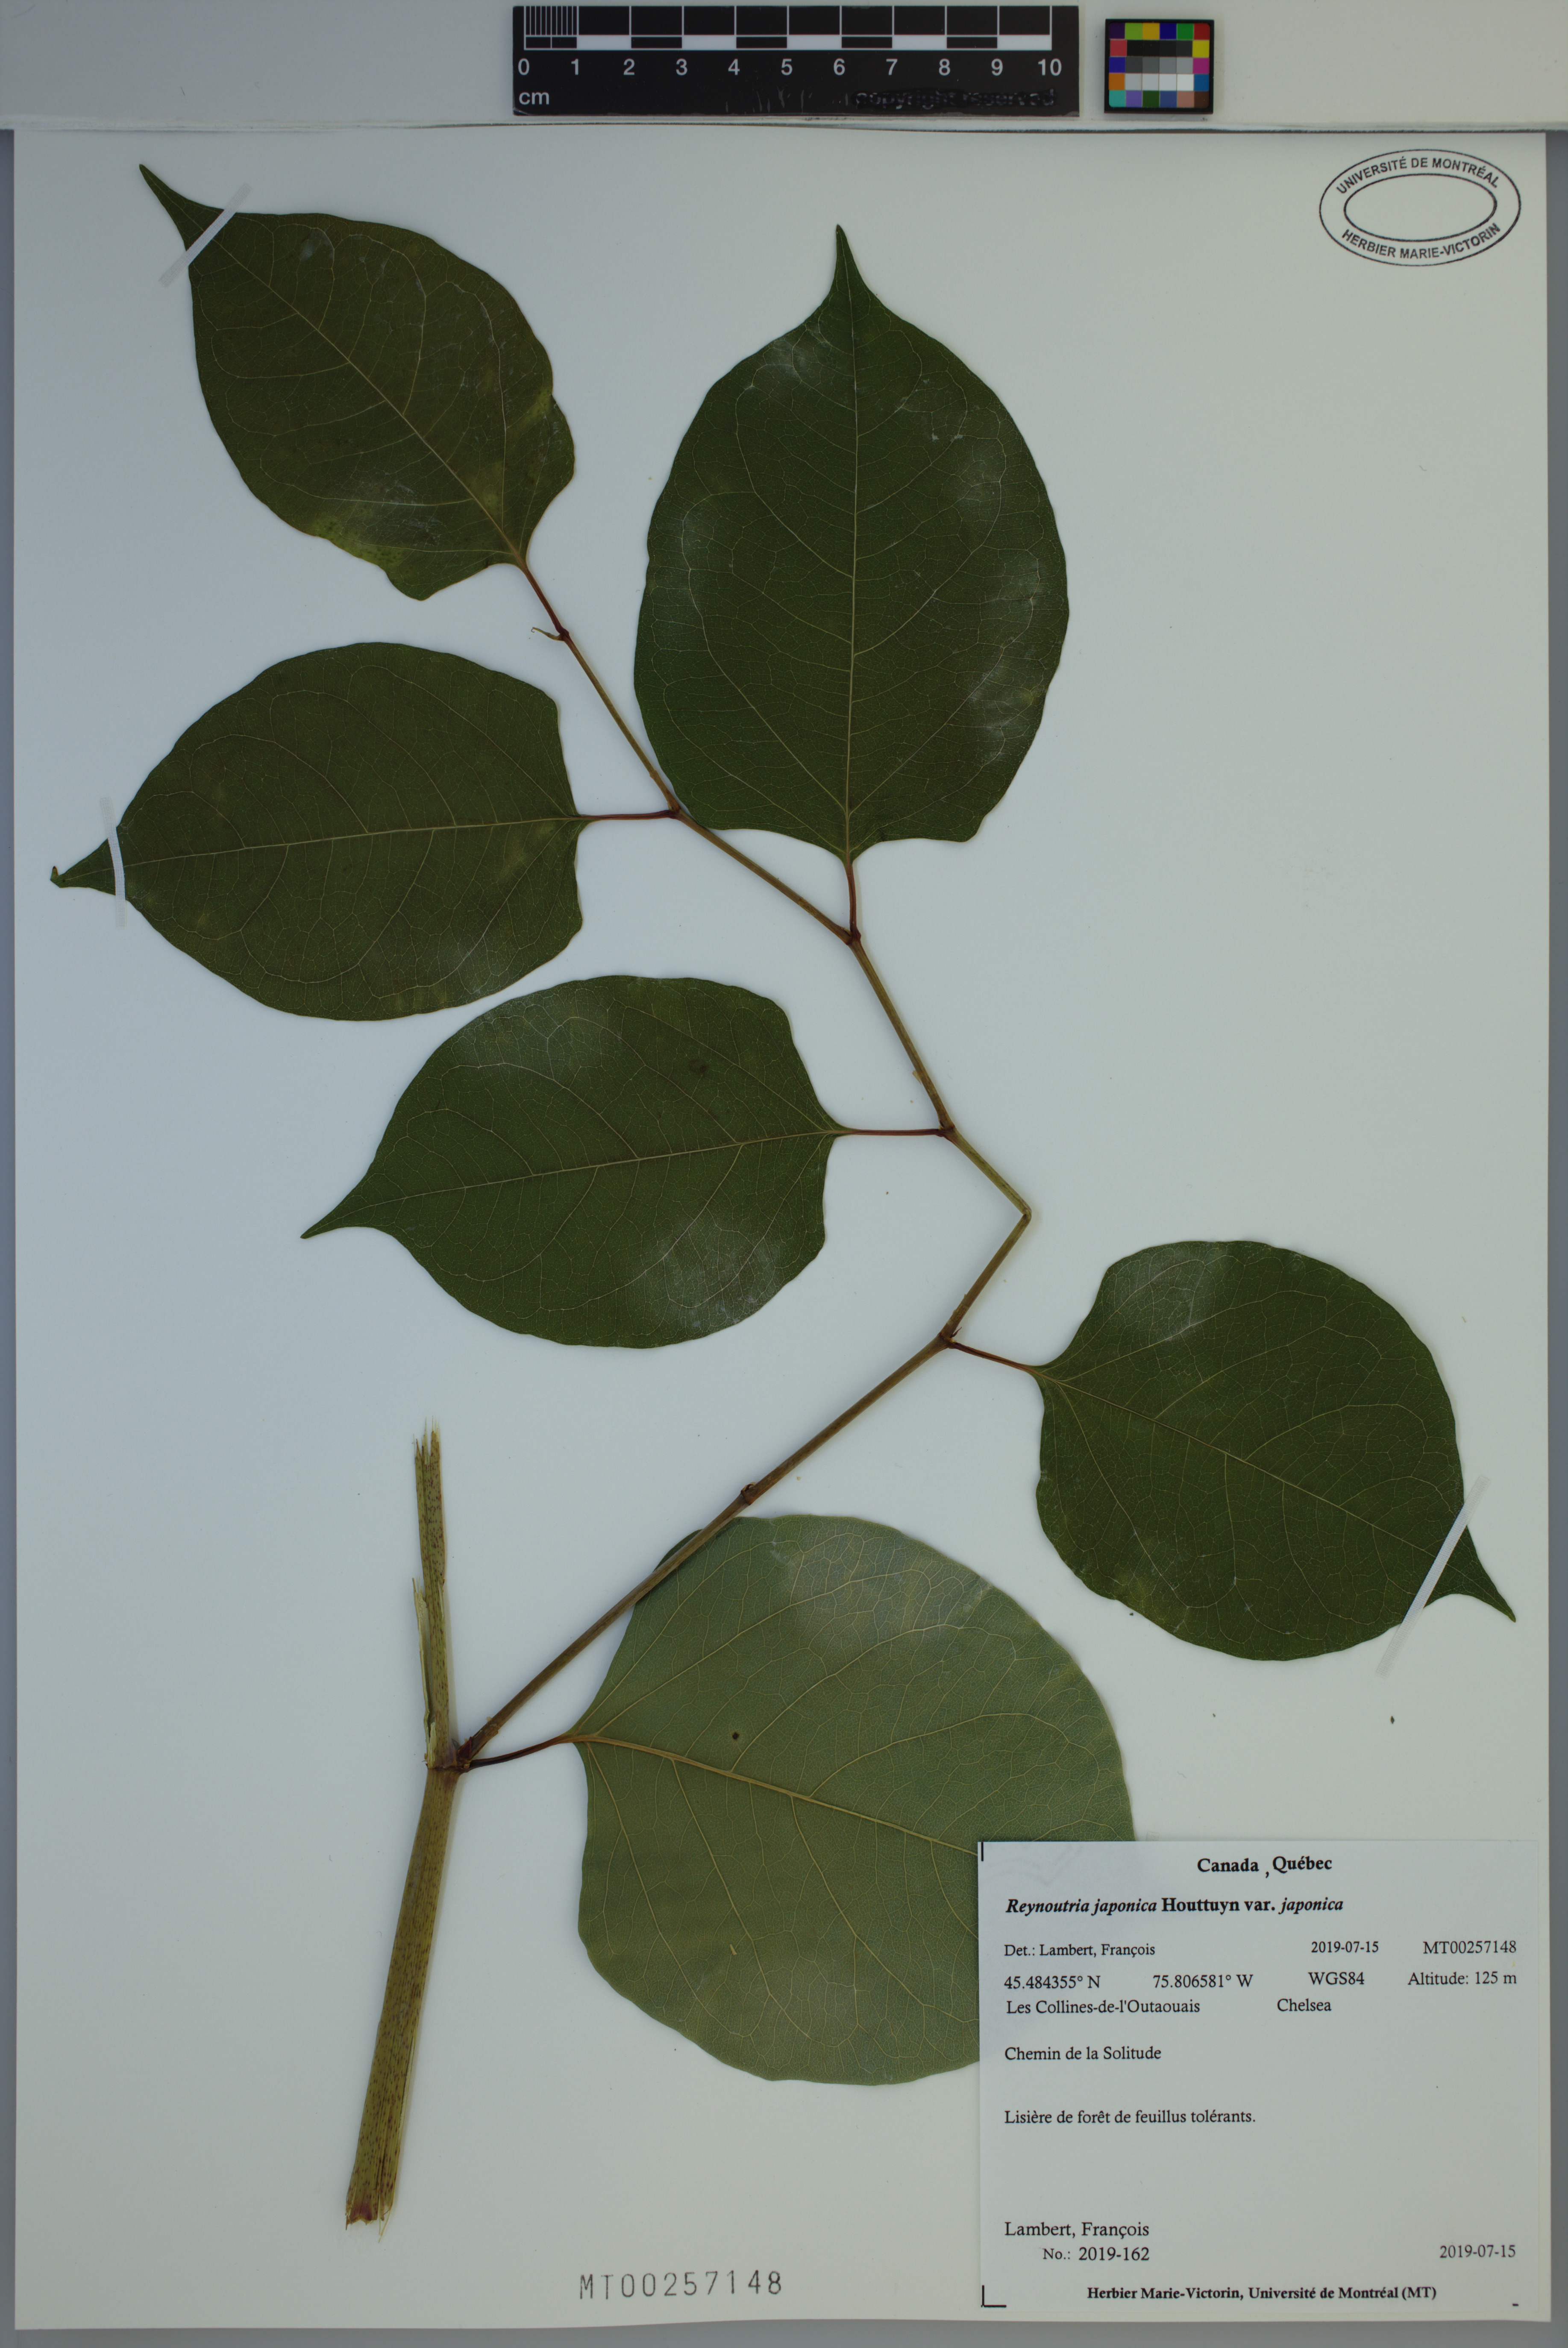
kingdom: Plantae
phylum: Tracheophyta
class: Magnoliopsida
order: Caryophyllales
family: Polygonaceae
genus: Reynoutria
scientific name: Reynoutria japonica
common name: Japanese knotweed
